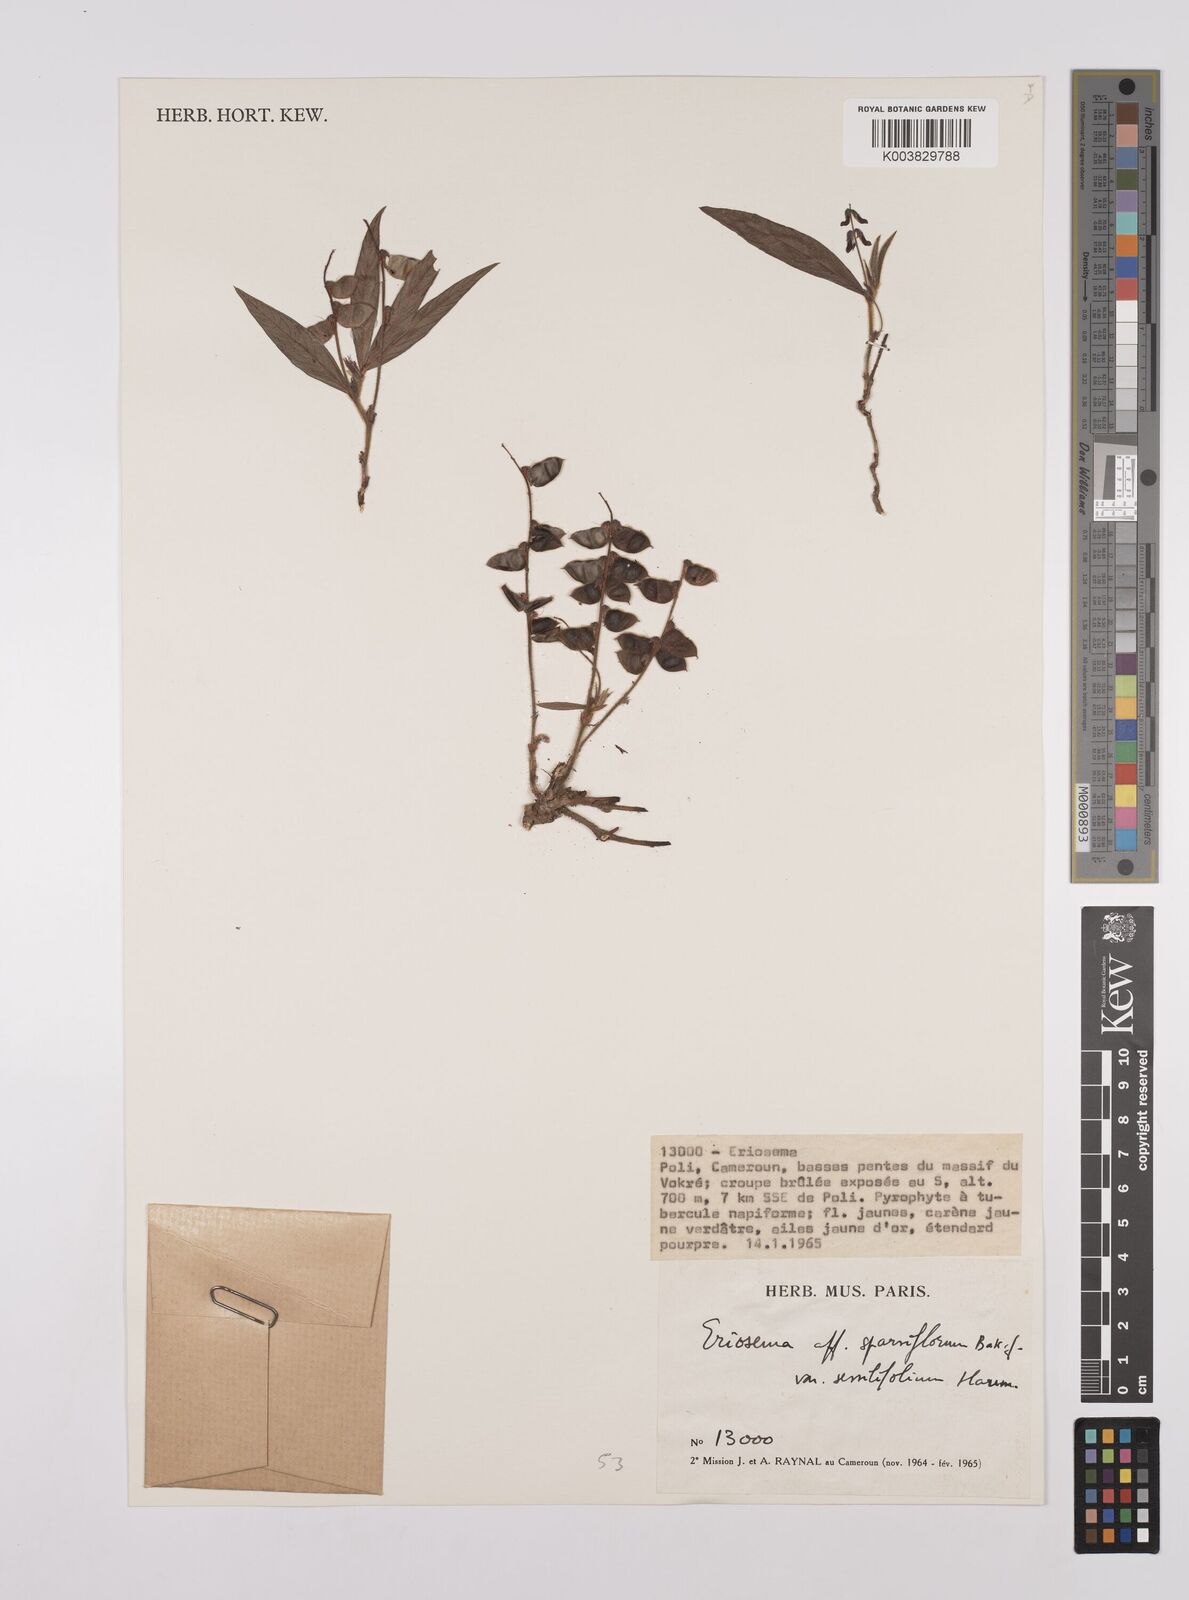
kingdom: Plantae
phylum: Tracheophyta
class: Magnoliopsida
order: Fabales
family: Fabaceae
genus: Eriosema
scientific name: Eriosema sparsiflorum
